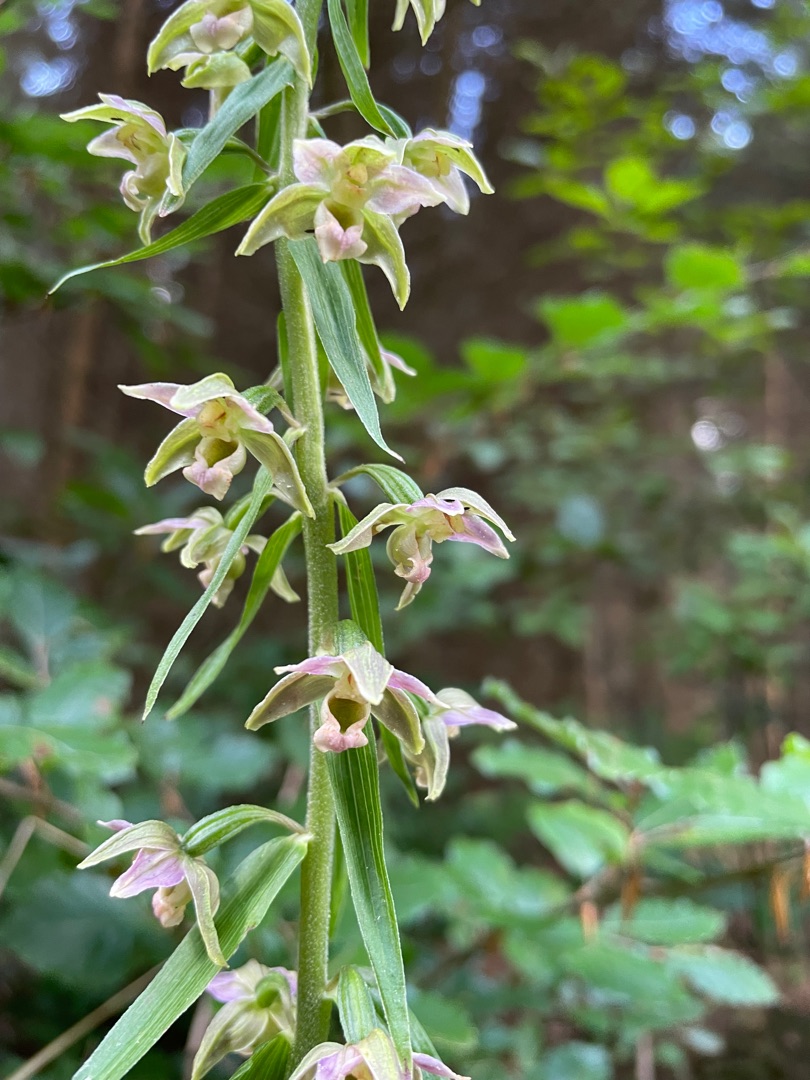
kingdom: Plantae
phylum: Tracheophyta
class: Liliopsida
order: Asparagales
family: Orchidaceae
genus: Epipactis
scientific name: Epipactis helleborine
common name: Skov-hullæbe (underart)
